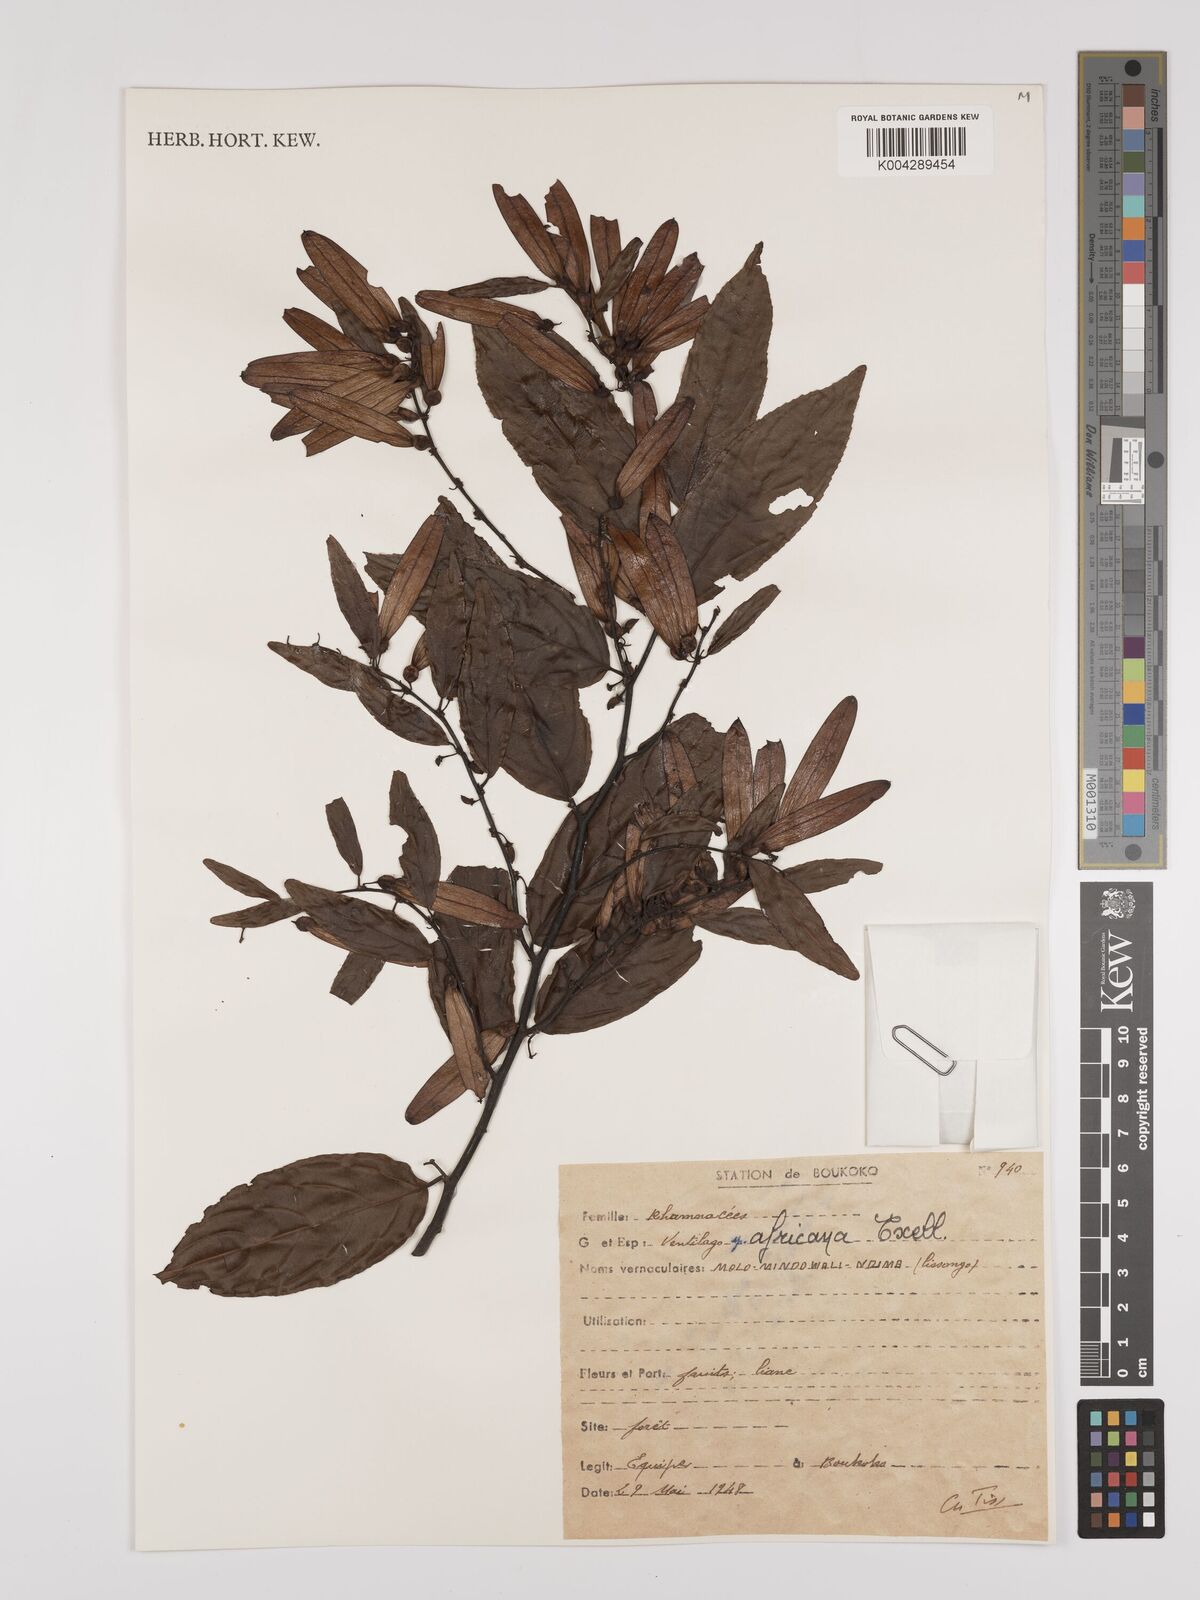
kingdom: Plantae
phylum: Tracheophyta
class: Magnoliopsida
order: Rosales
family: Rhamnaceae
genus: Ventilago
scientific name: Ventilago africana
